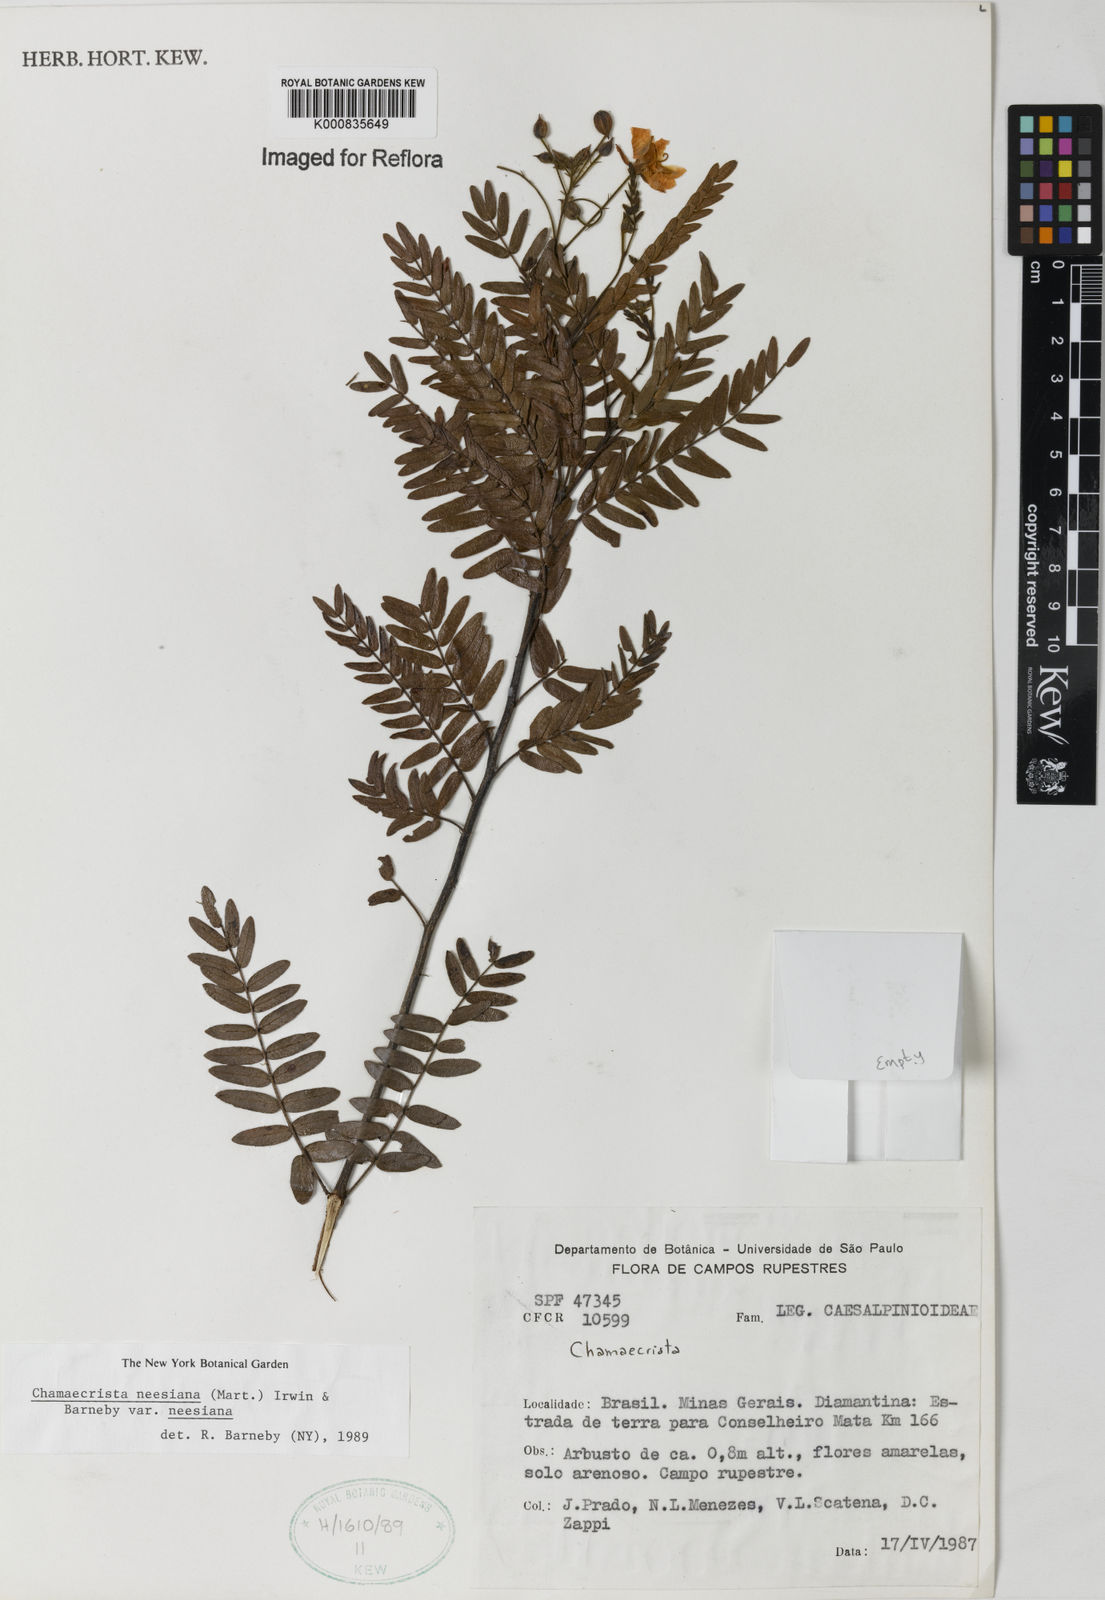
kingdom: Plantae
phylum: Tracheophyta
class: Magnoliopsida
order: Fabales
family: Fabaceae
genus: Chamaecrista
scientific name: Chamaecrista neesiana
